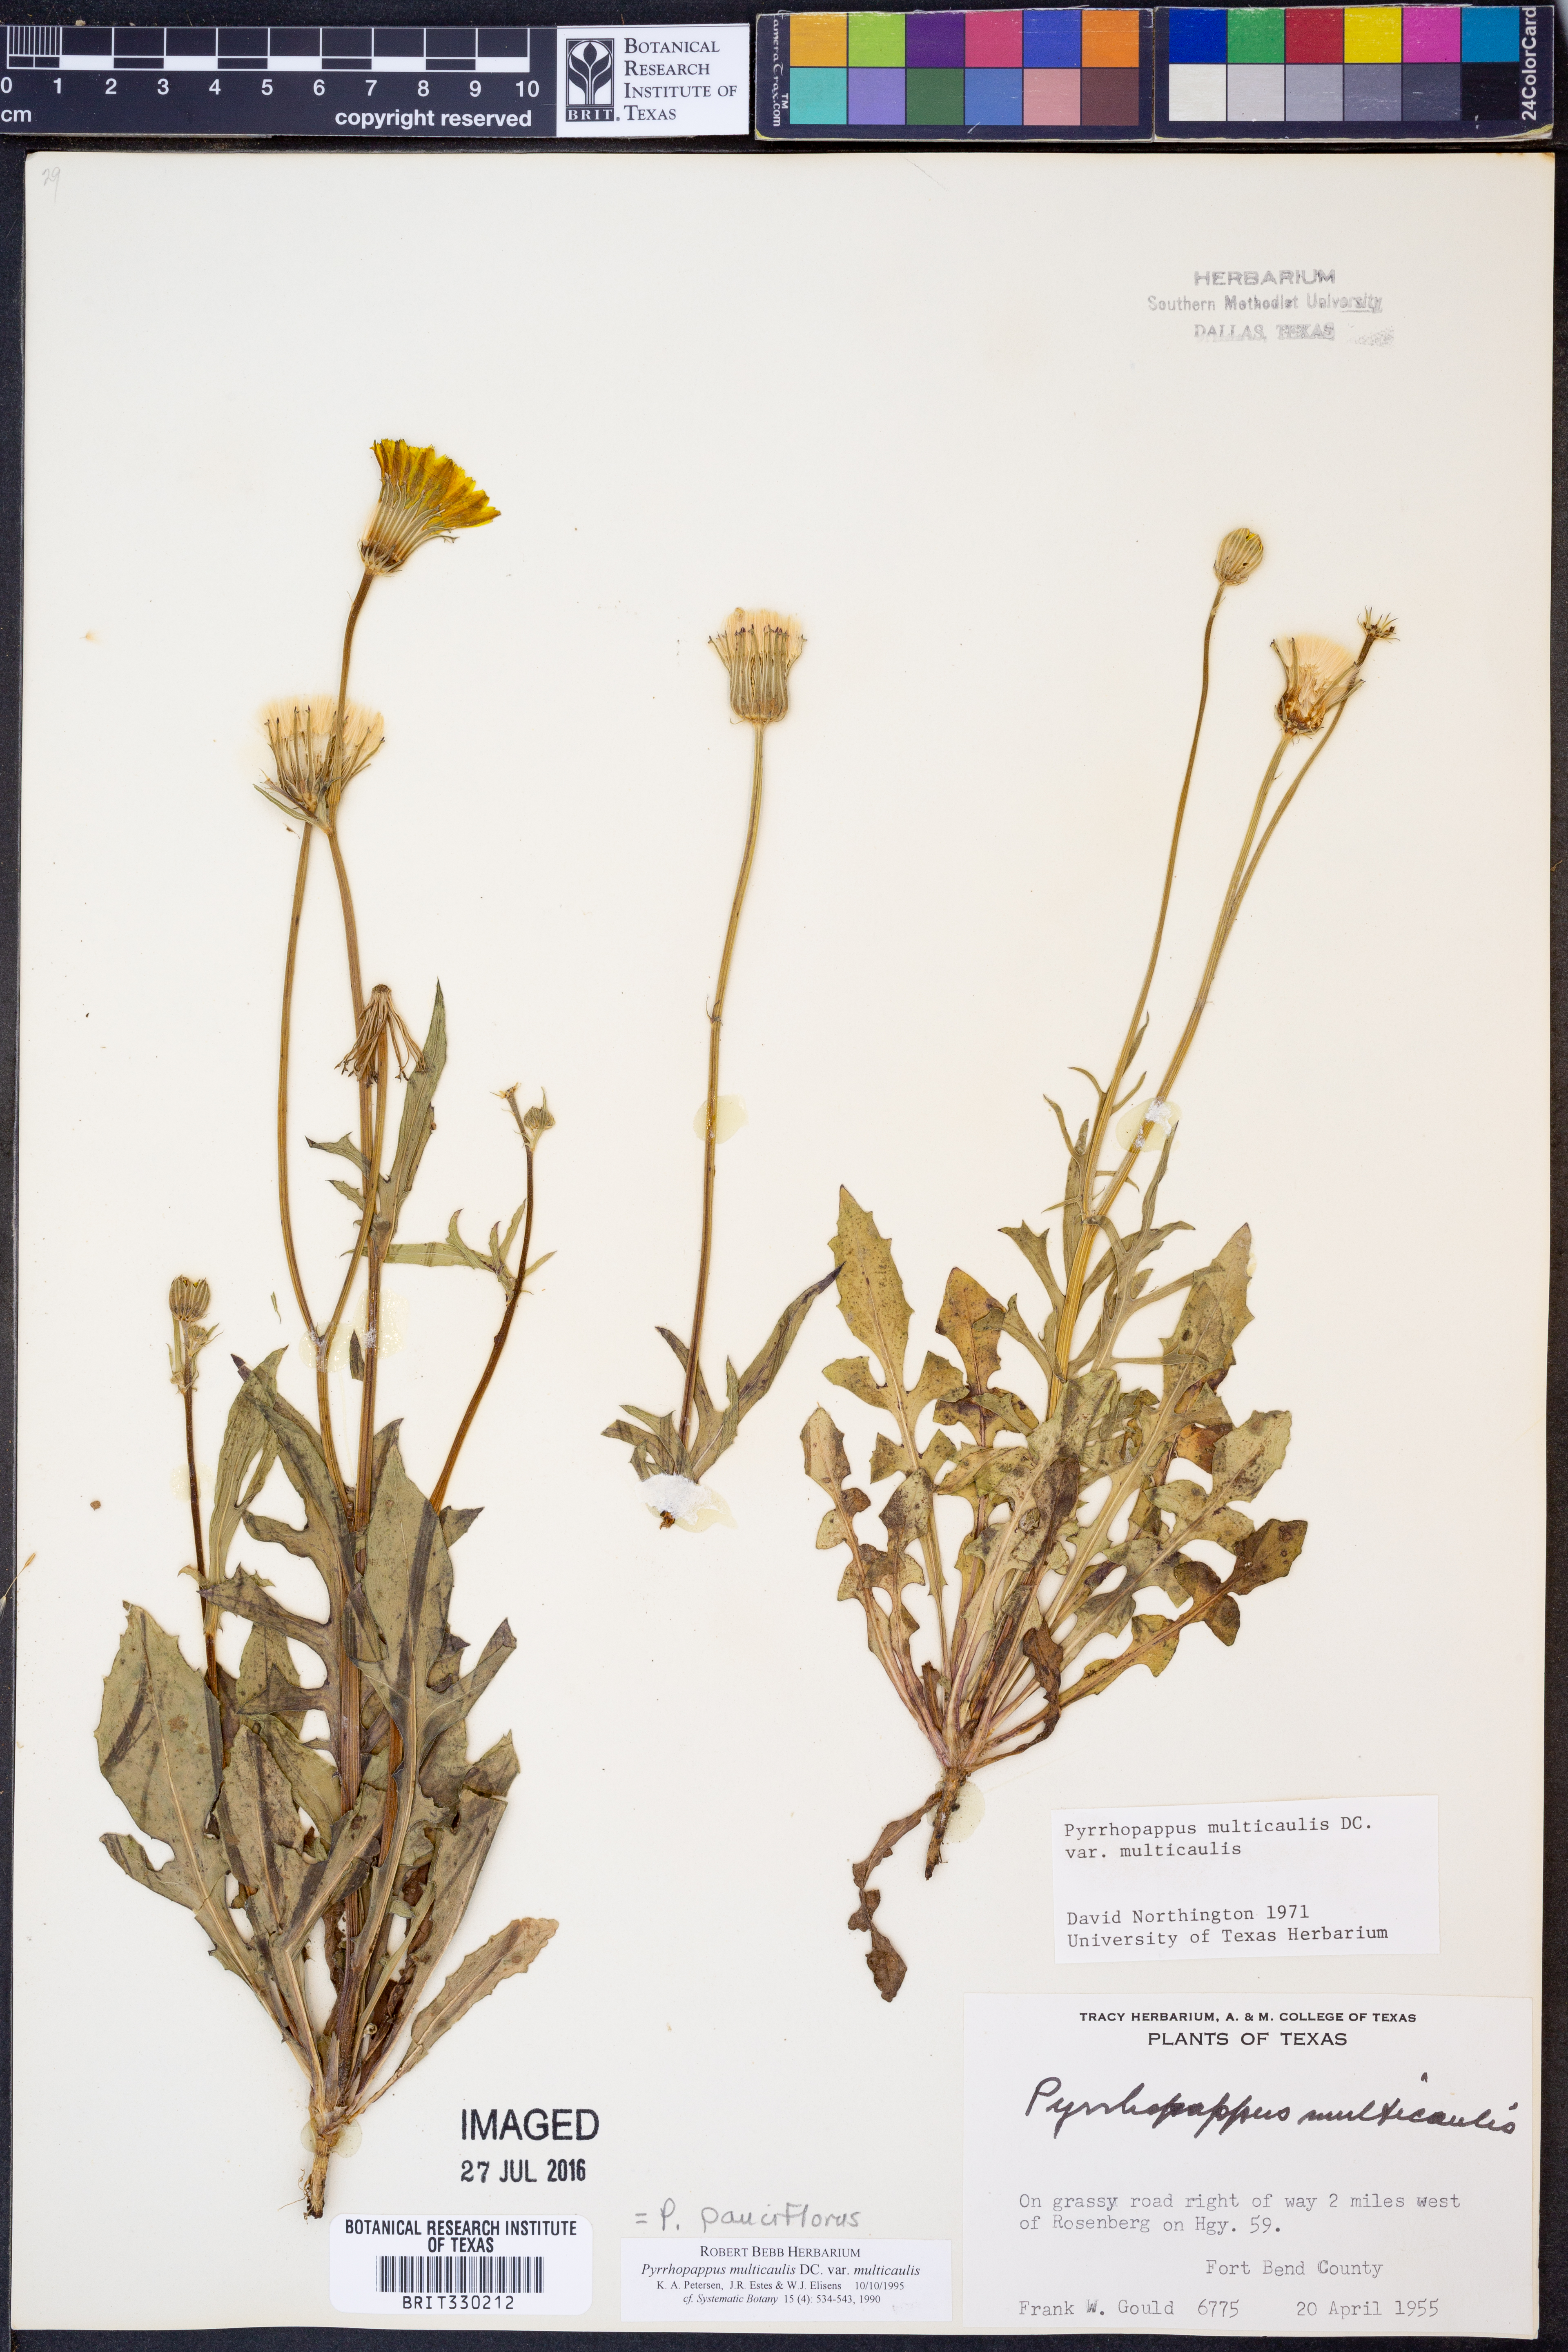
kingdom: Plantae
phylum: Tracheophyta
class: Magnoliopsida
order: Asterales
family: Asteraceae
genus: Pyrrhopappus
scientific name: Pyrrhopappus pauciflorus
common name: Texas false dandelion
